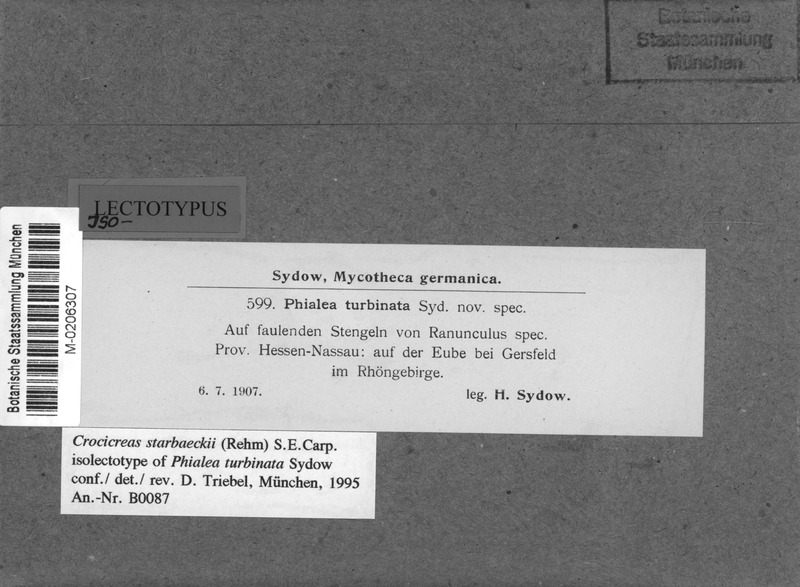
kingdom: Fungi
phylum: Ascomycota
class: Leotiomycetes
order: Helotiales
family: Helotiaceae
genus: Cyathicula
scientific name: Cyathicula starbaeckii
